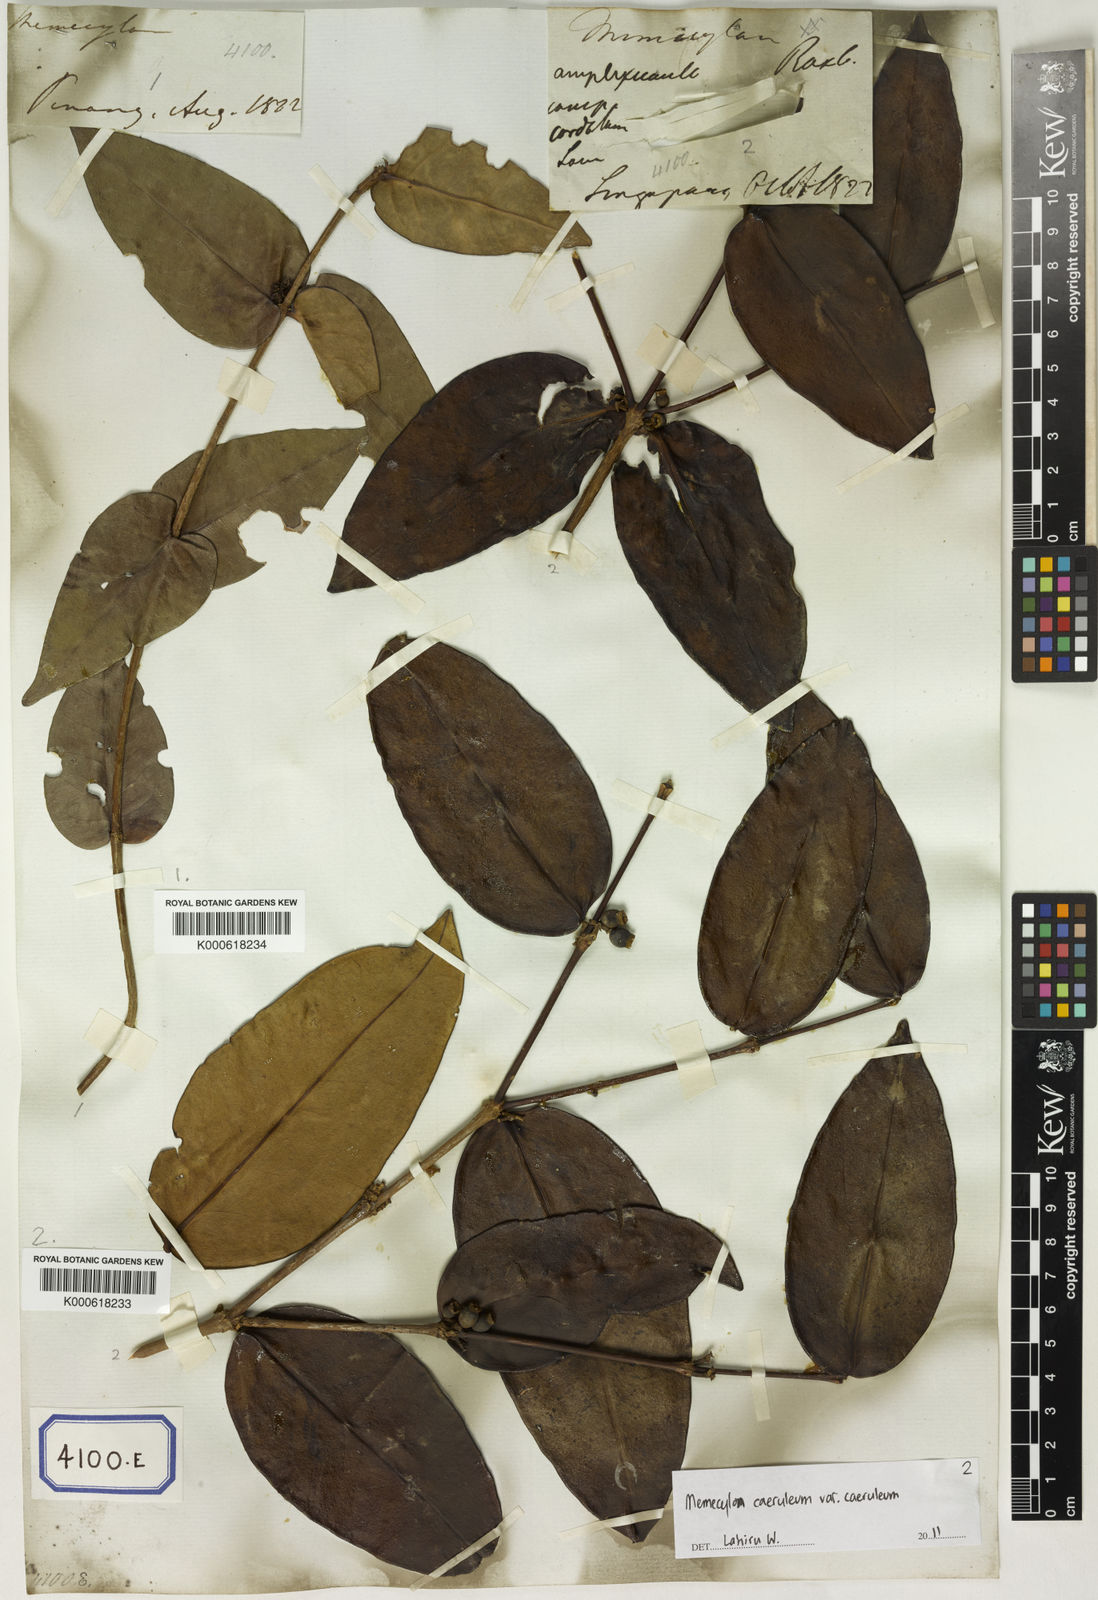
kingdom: Plantae
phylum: Tracheophyta
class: Magnoliopsida
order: Myrtales
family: Melastomataceae
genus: Memecylon
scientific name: Memecylon caeruleum
